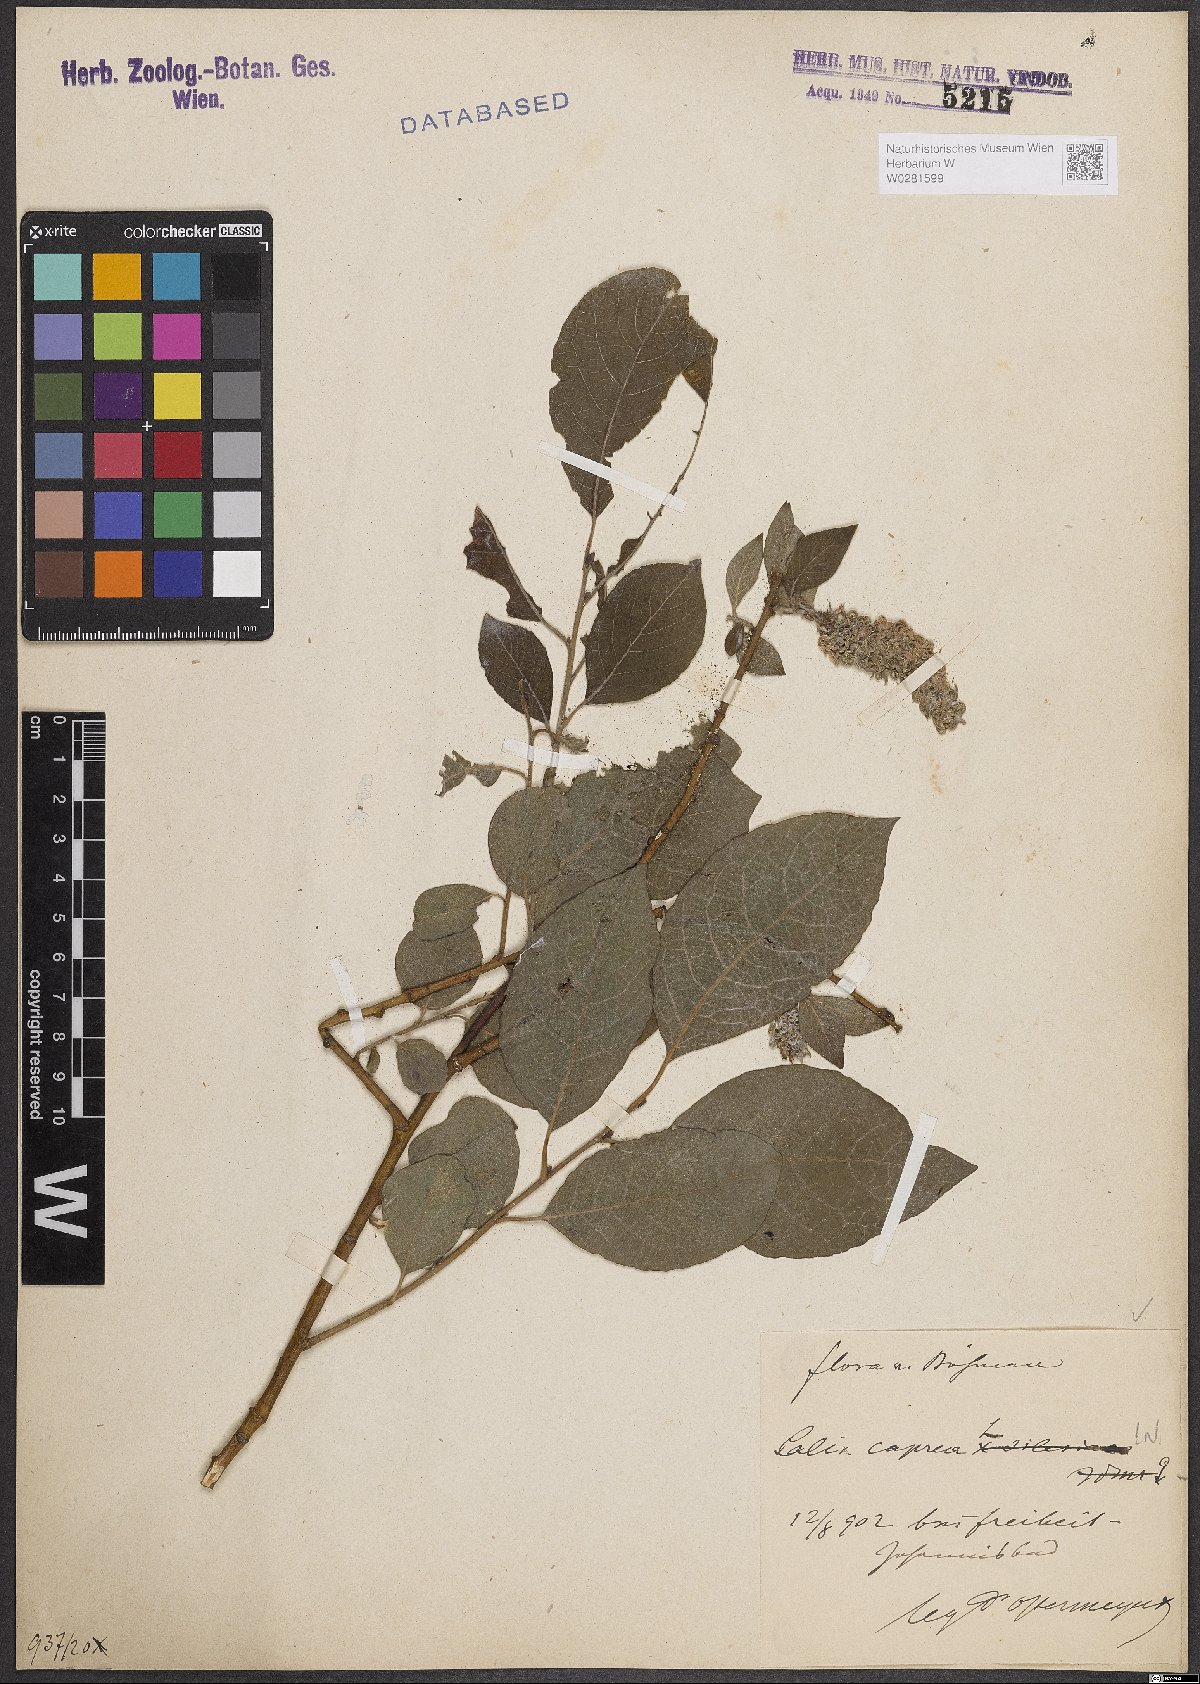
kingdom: Plantae
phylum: Tracheophyta
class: Magnoliopsida
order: Malpighiales
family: Salicaceae
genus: Salix
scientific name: Salix caprea
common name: Goat willow
